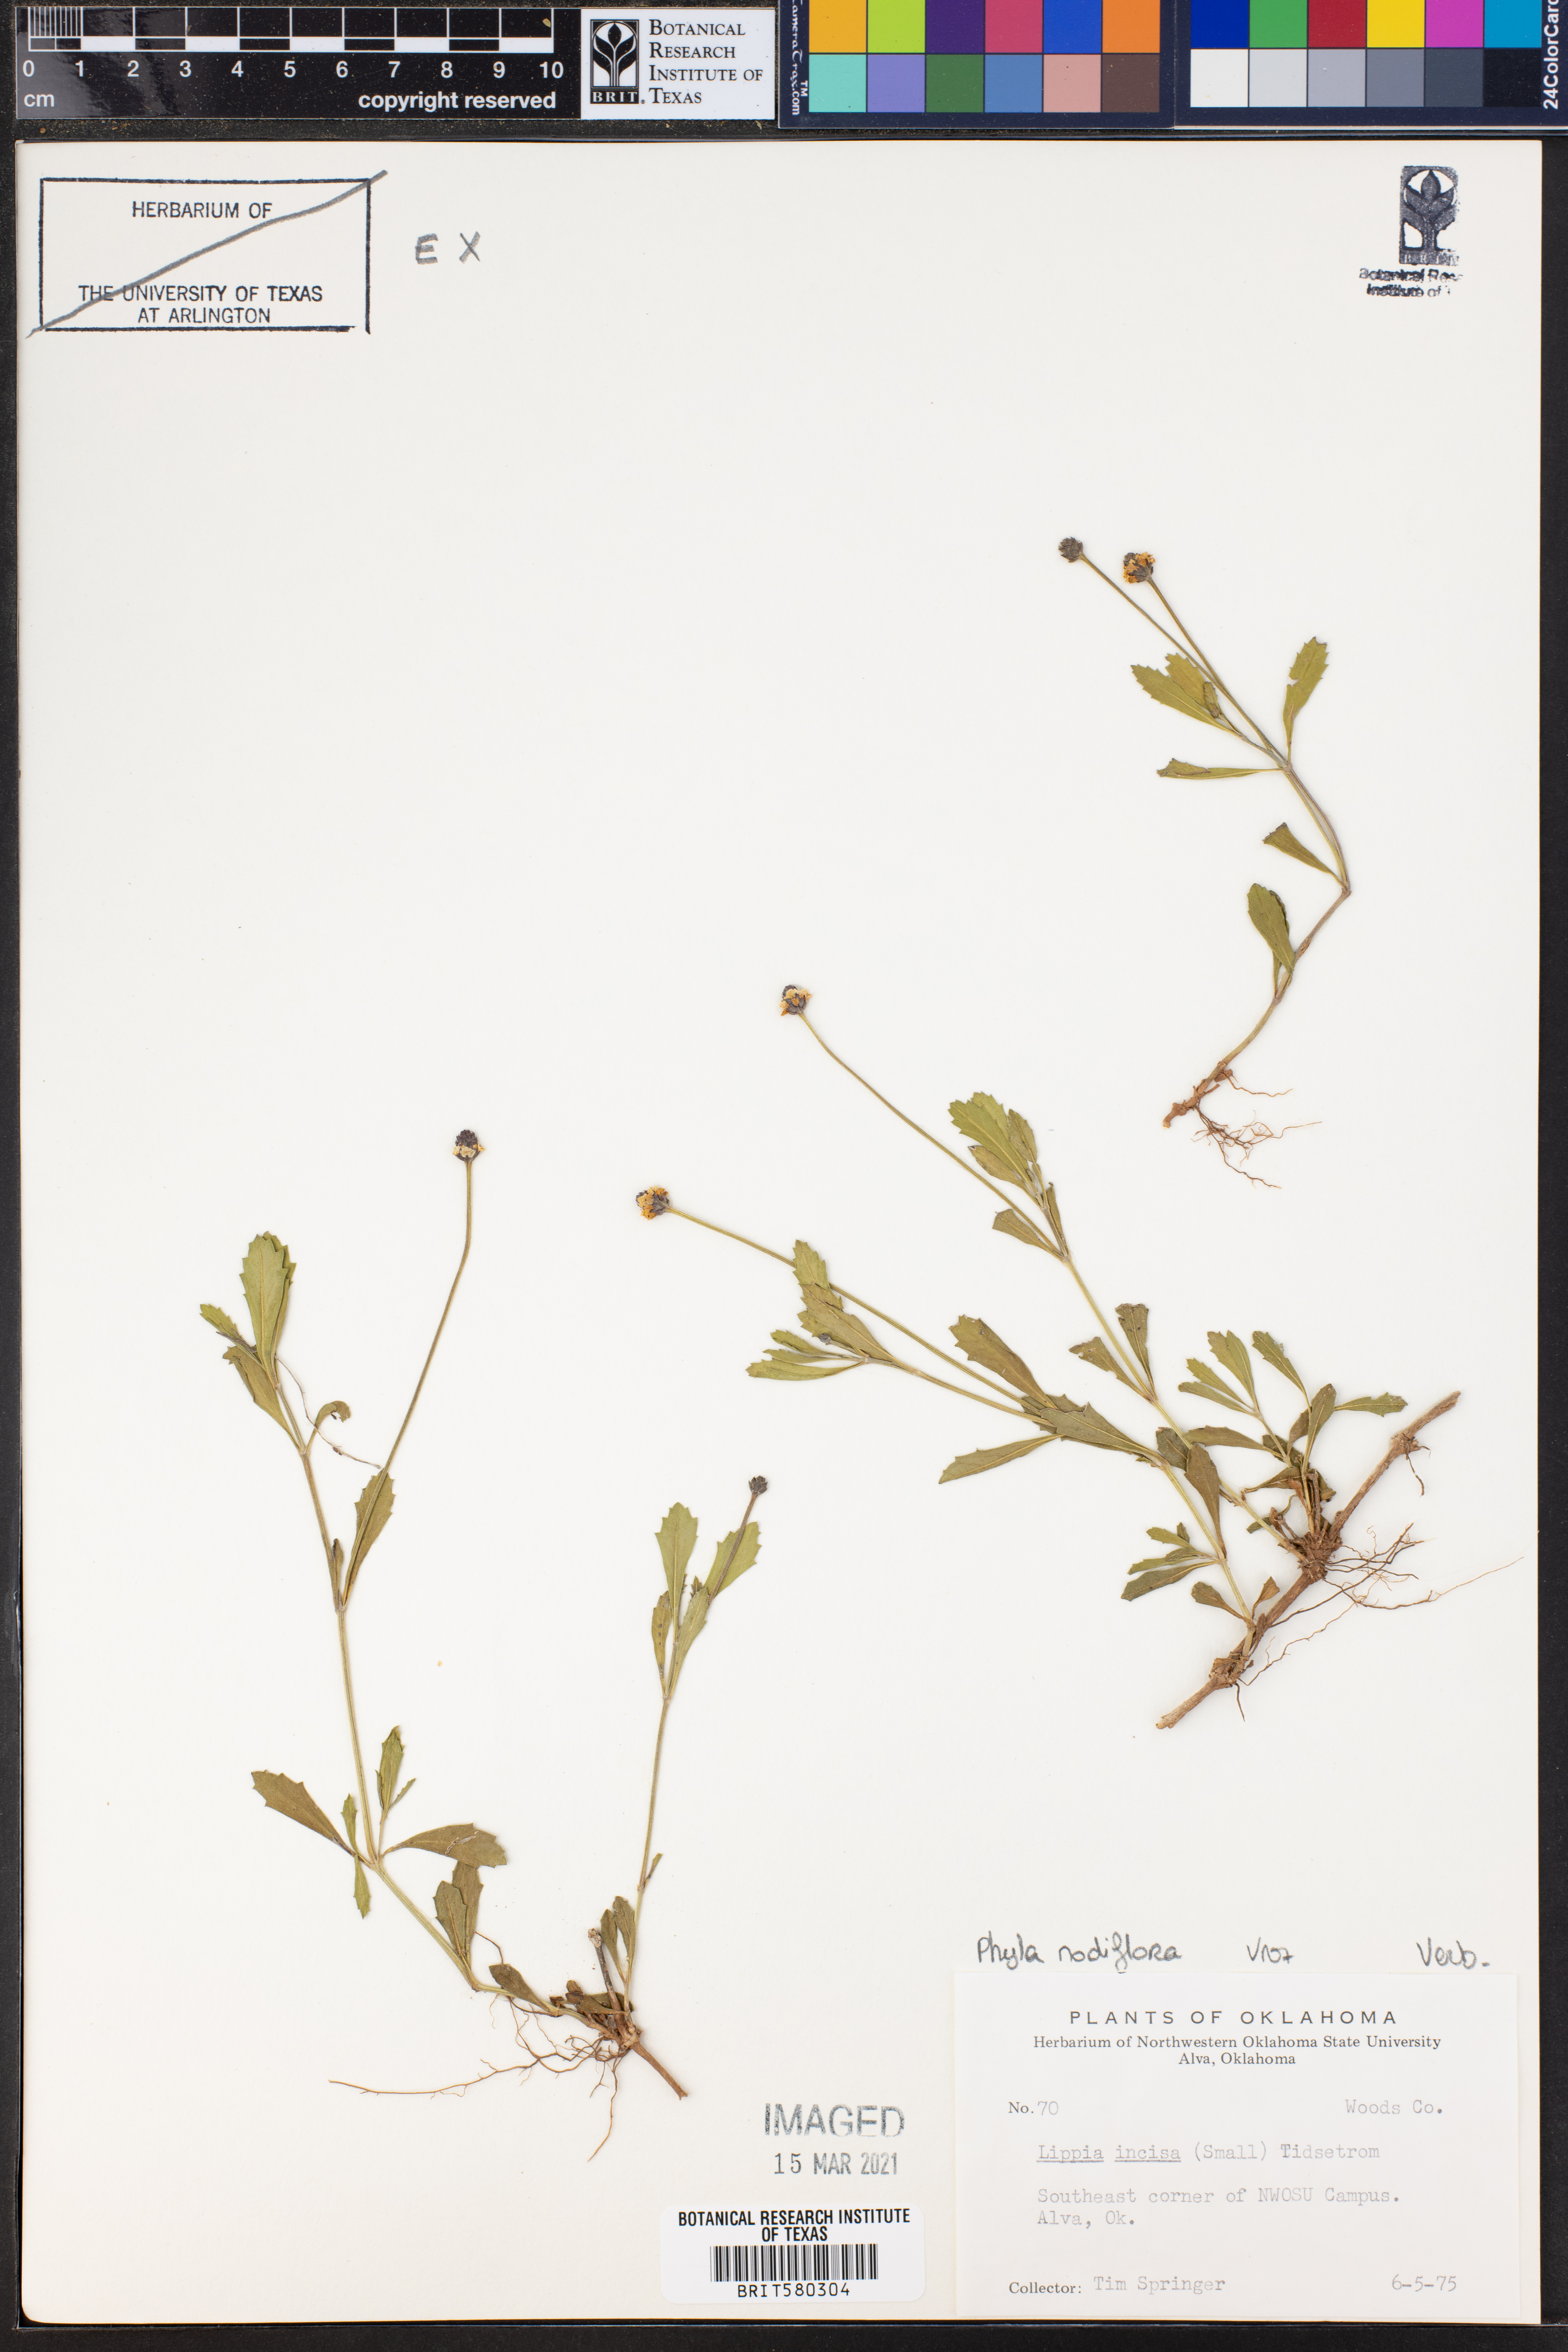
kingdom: Plantae
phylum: Tracheophyta
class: Magnoliopsida
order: Lamiales
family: Verbenaceae
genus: Phyla
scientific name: Phyla nodiflora
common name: Frogfruit
